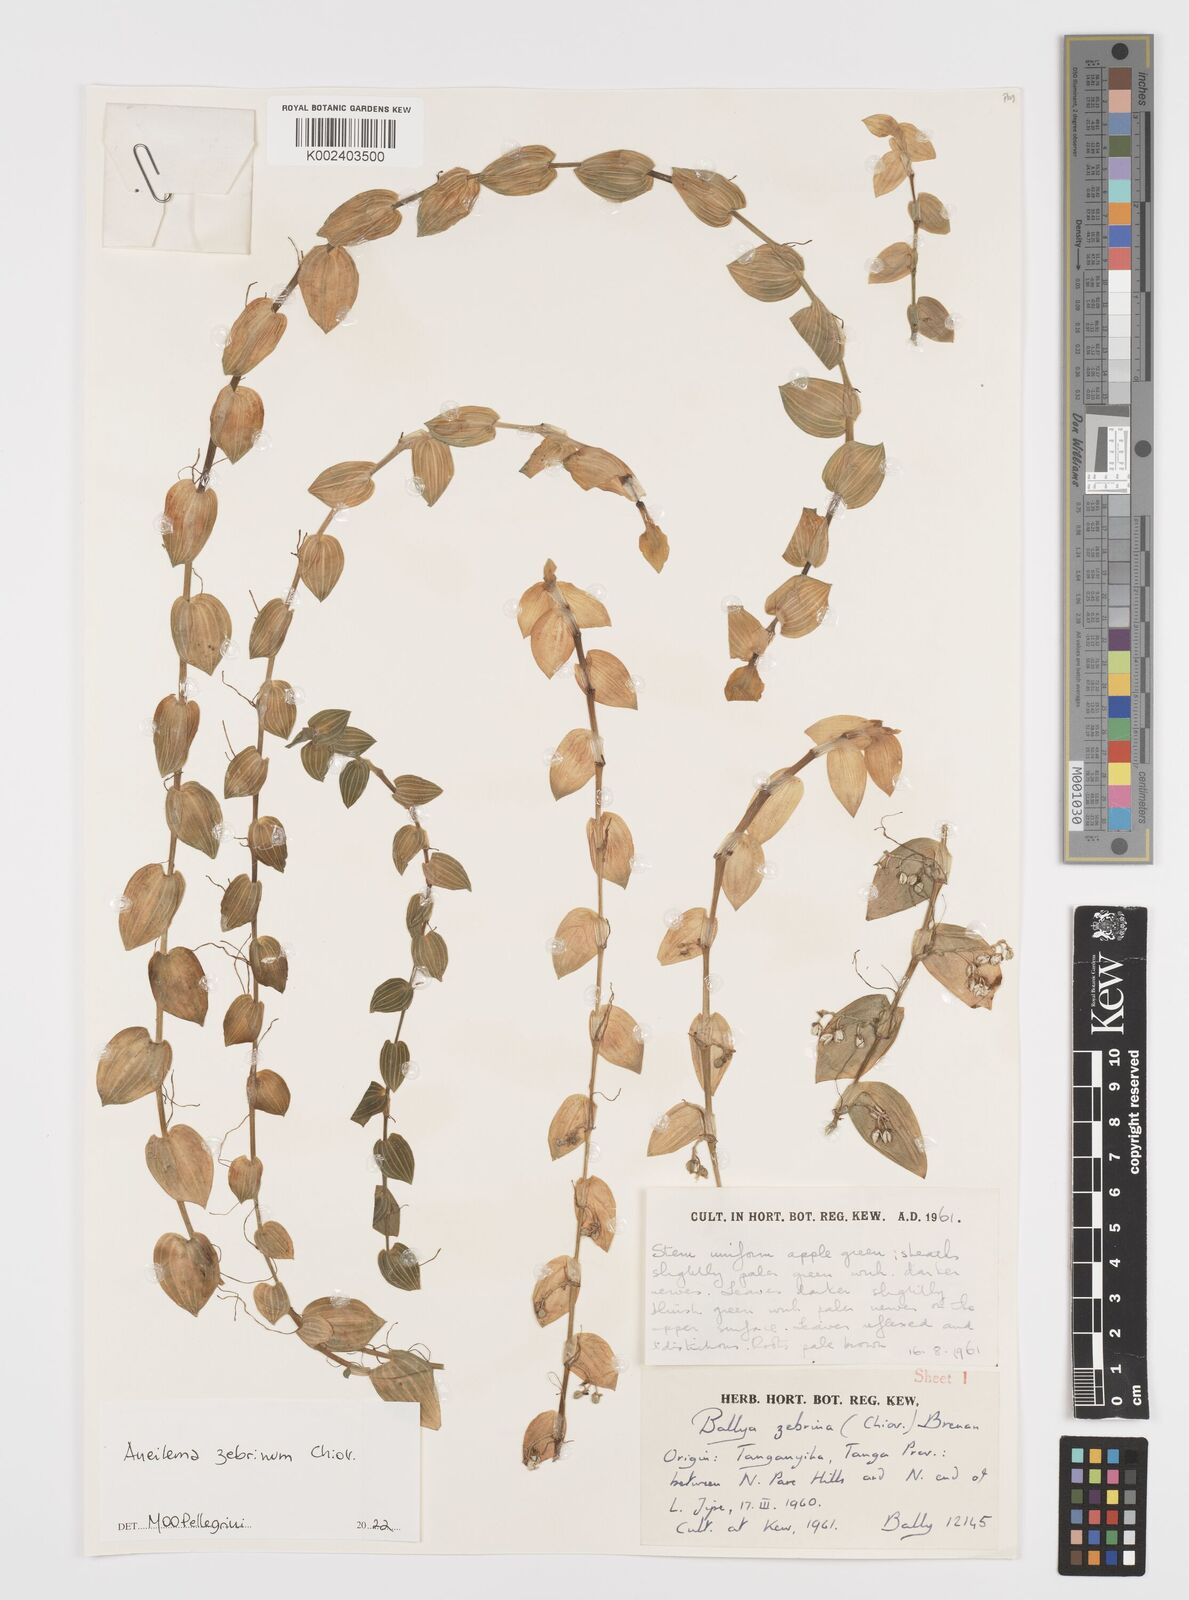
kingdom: Plantae
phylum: Tracheophyta
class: Liliopsida
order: Commelinales
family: Commelinaceae
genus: Aneilema
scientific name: Aneilema zebrinum
